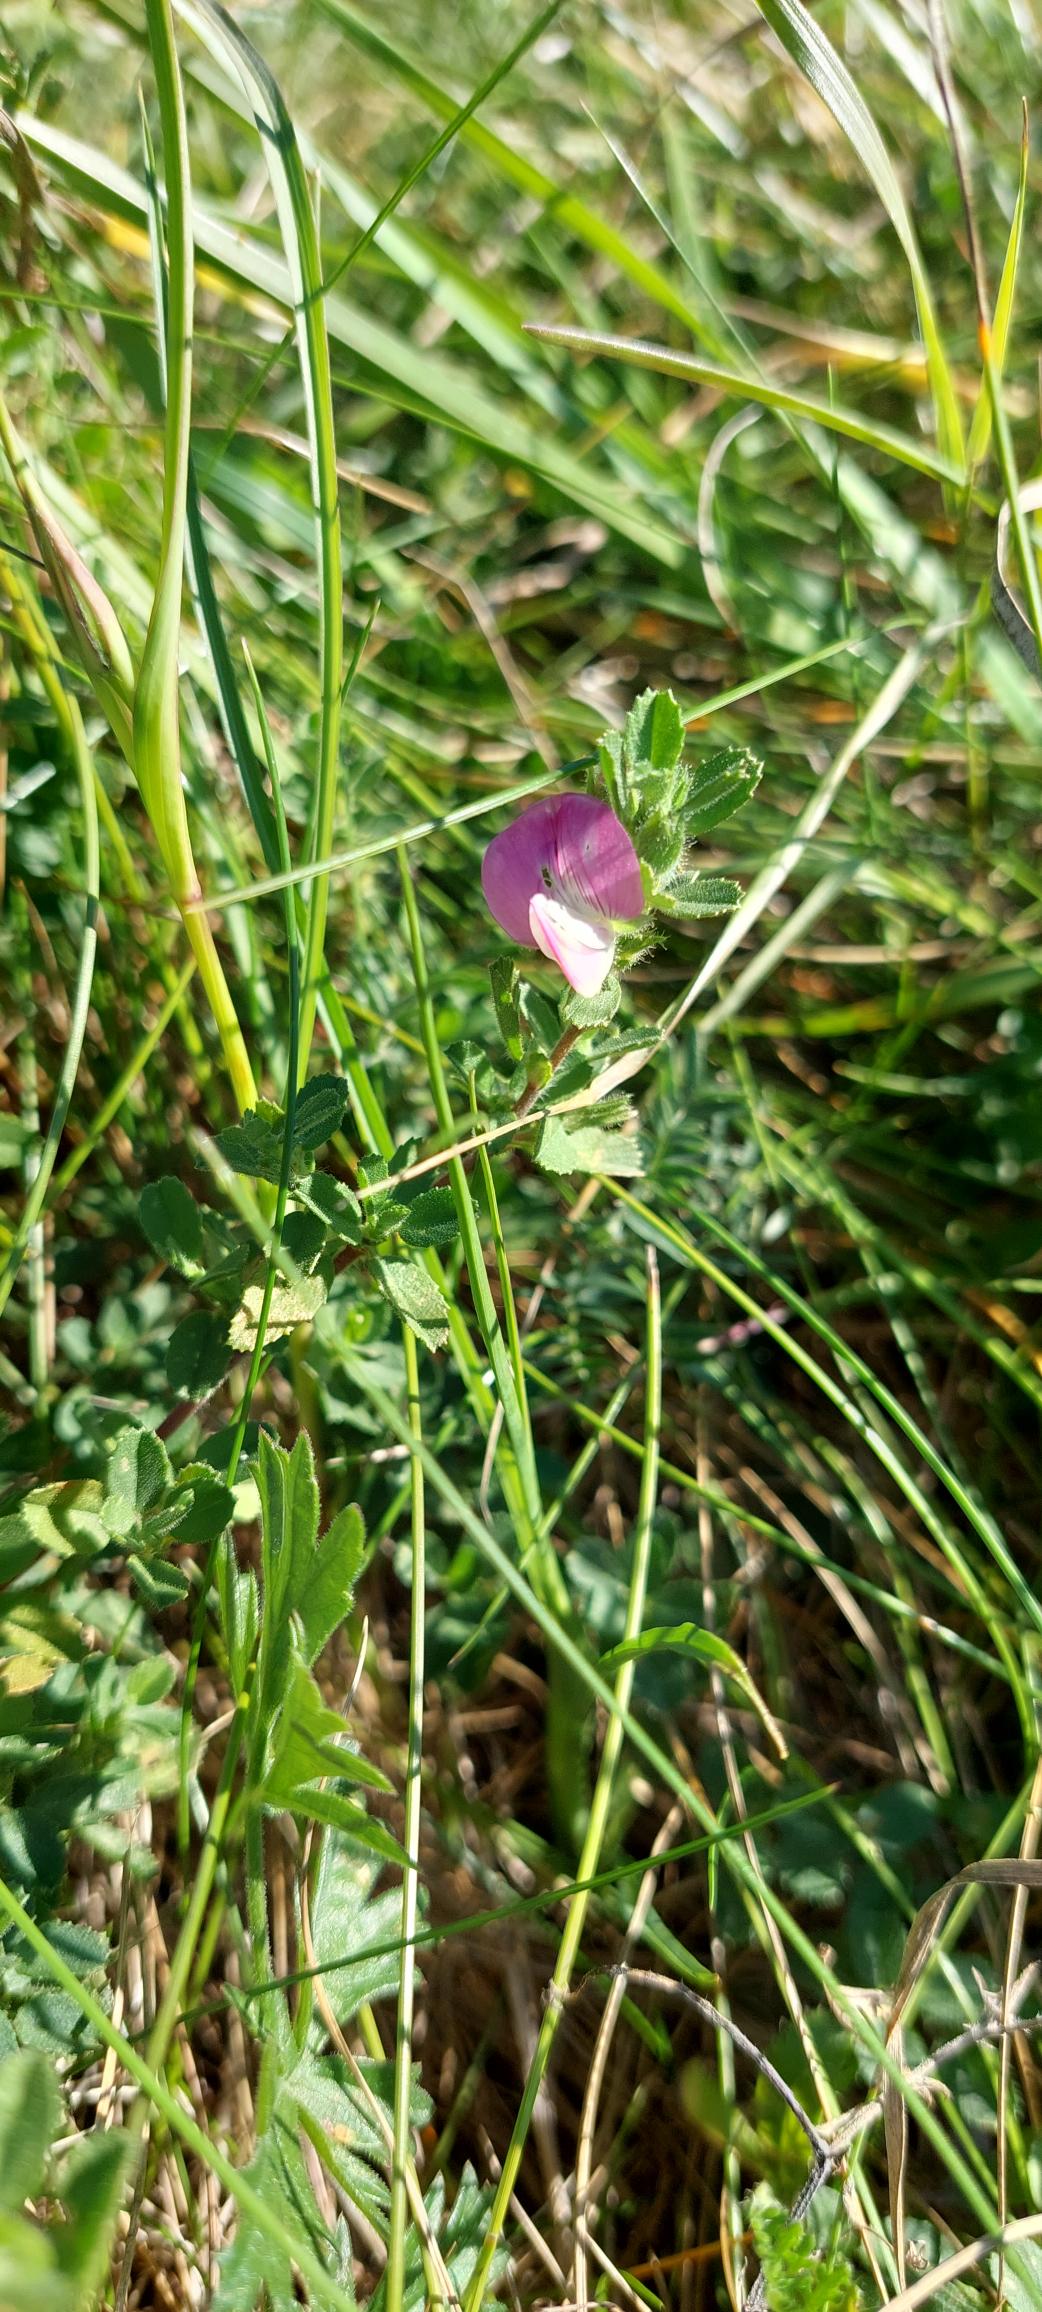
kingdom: Plantae
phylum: Tracheophyta
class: Magnoliopsida
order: Fabales
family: Fabaceae
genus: Ononis
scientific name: Ononis spinosa
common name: Mark-krageklo
